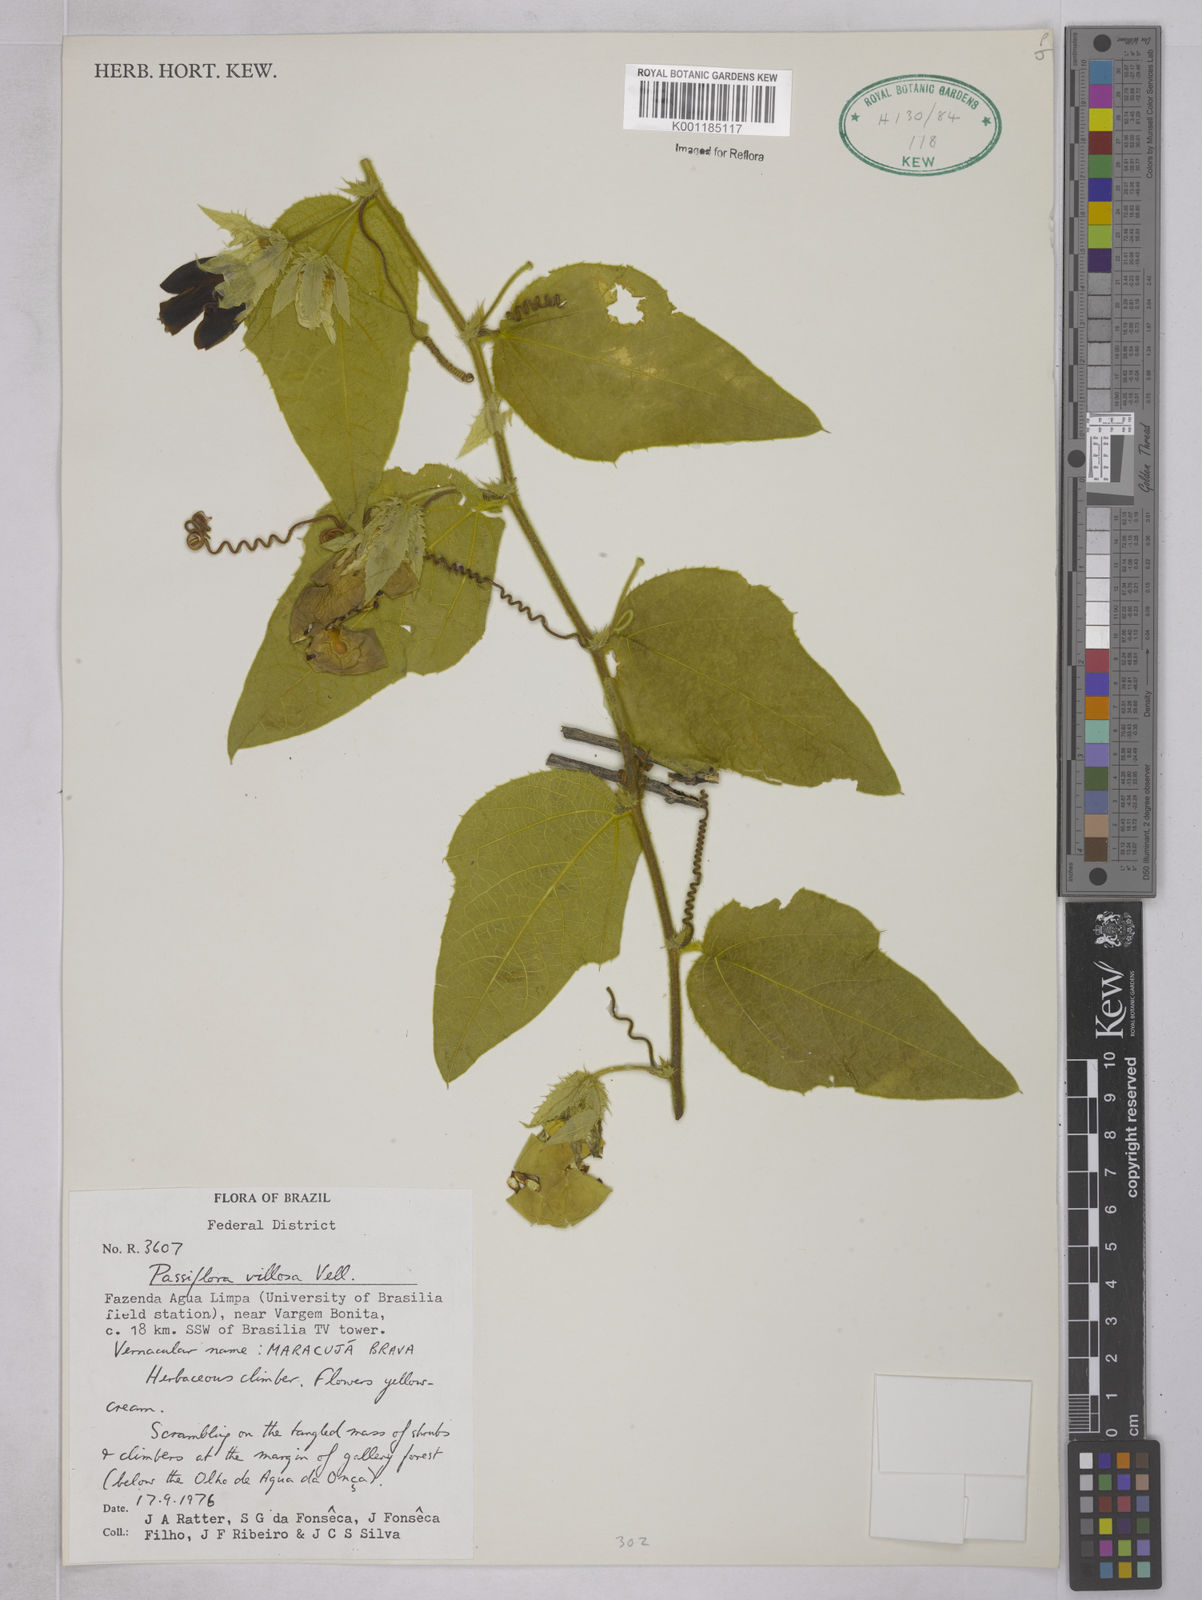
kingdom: Plantae
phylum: Tracheophyta
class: Magnoliopsida
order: Malpighiales
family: Passifloraceae
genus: Passiflora
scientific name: Passiflora villosa
